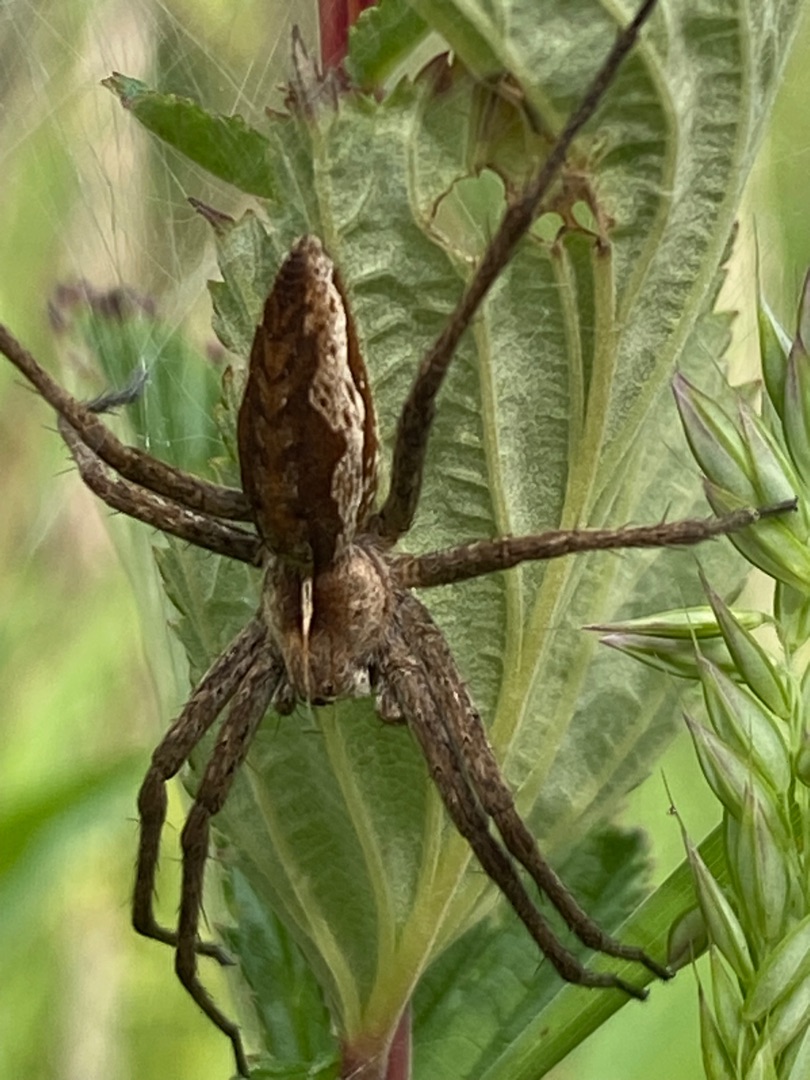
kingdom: Animalia
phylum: Arthropoda
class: Arachnida
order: Araneae
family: Pisauridae
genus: Pisaura
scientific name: Pisaura mirabilis
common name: Almindelig rovedderkop
